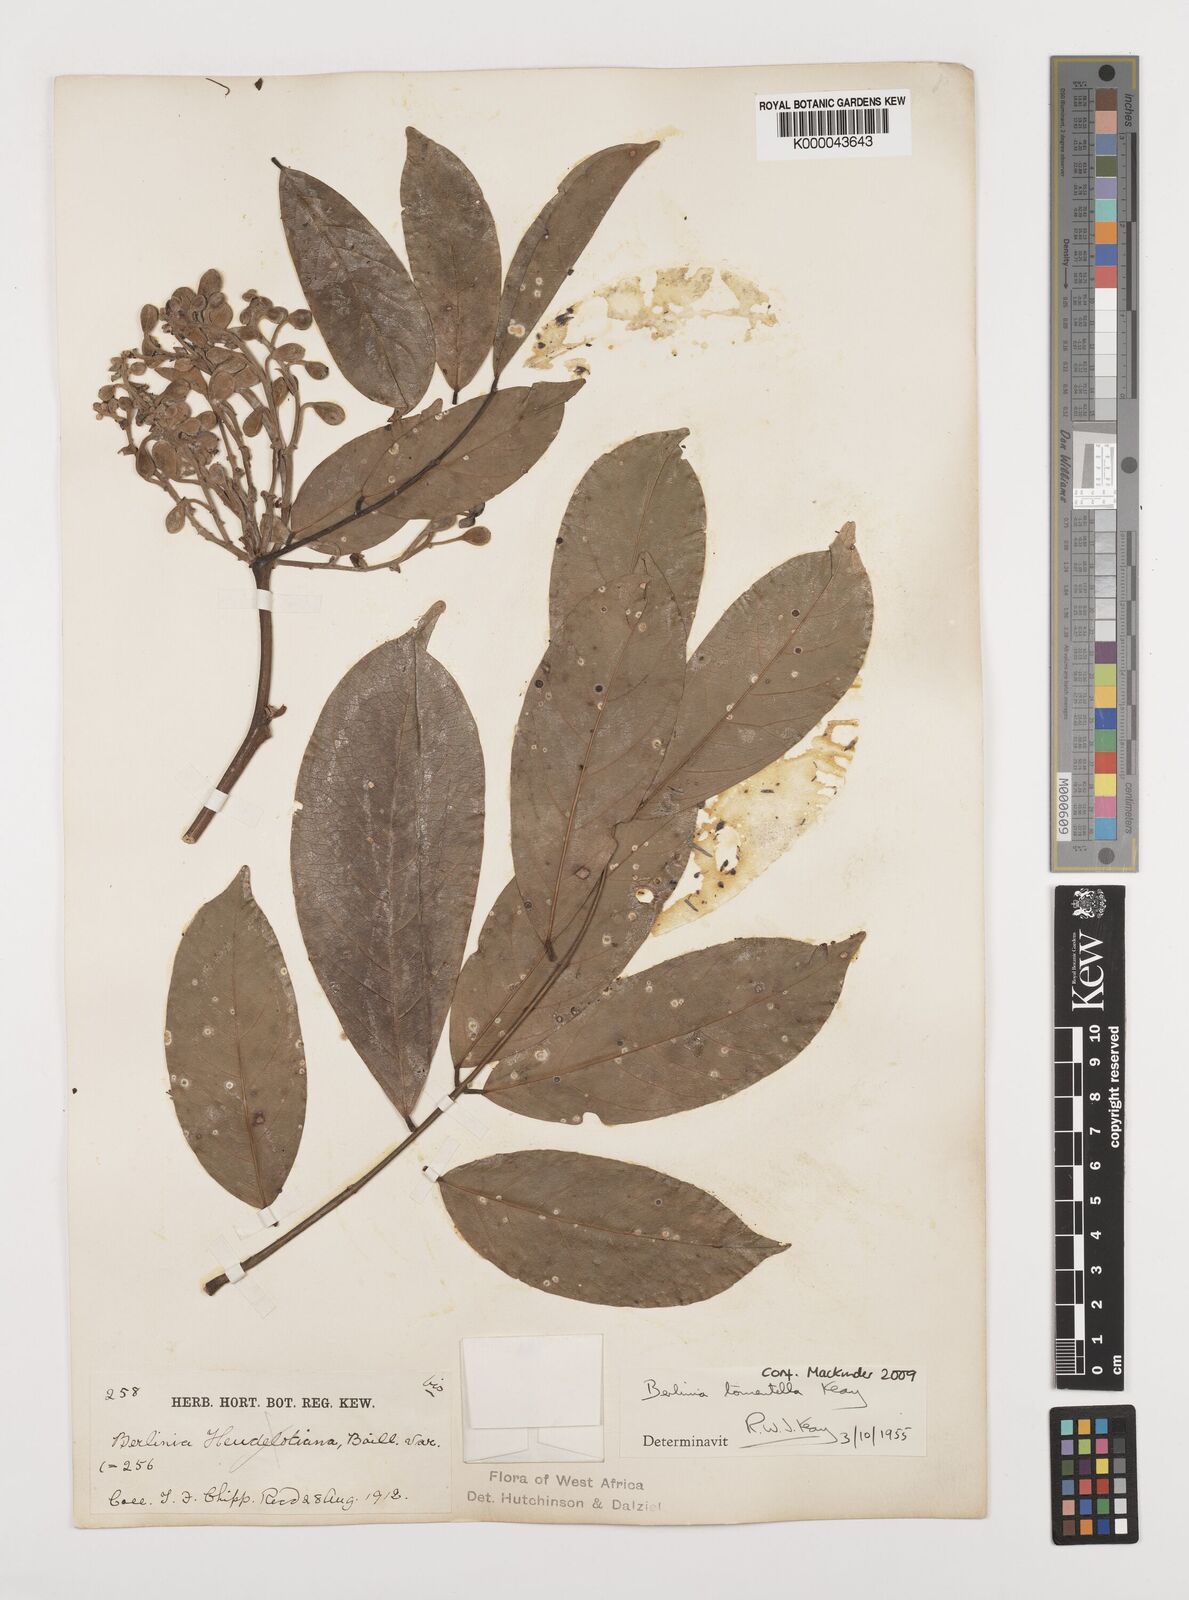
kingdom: Plantae
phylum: Tracheophyta
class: Magnoliopsida
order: Fabales
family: Fabaceae
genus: Berlinia
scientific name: Berlinia tomentella
